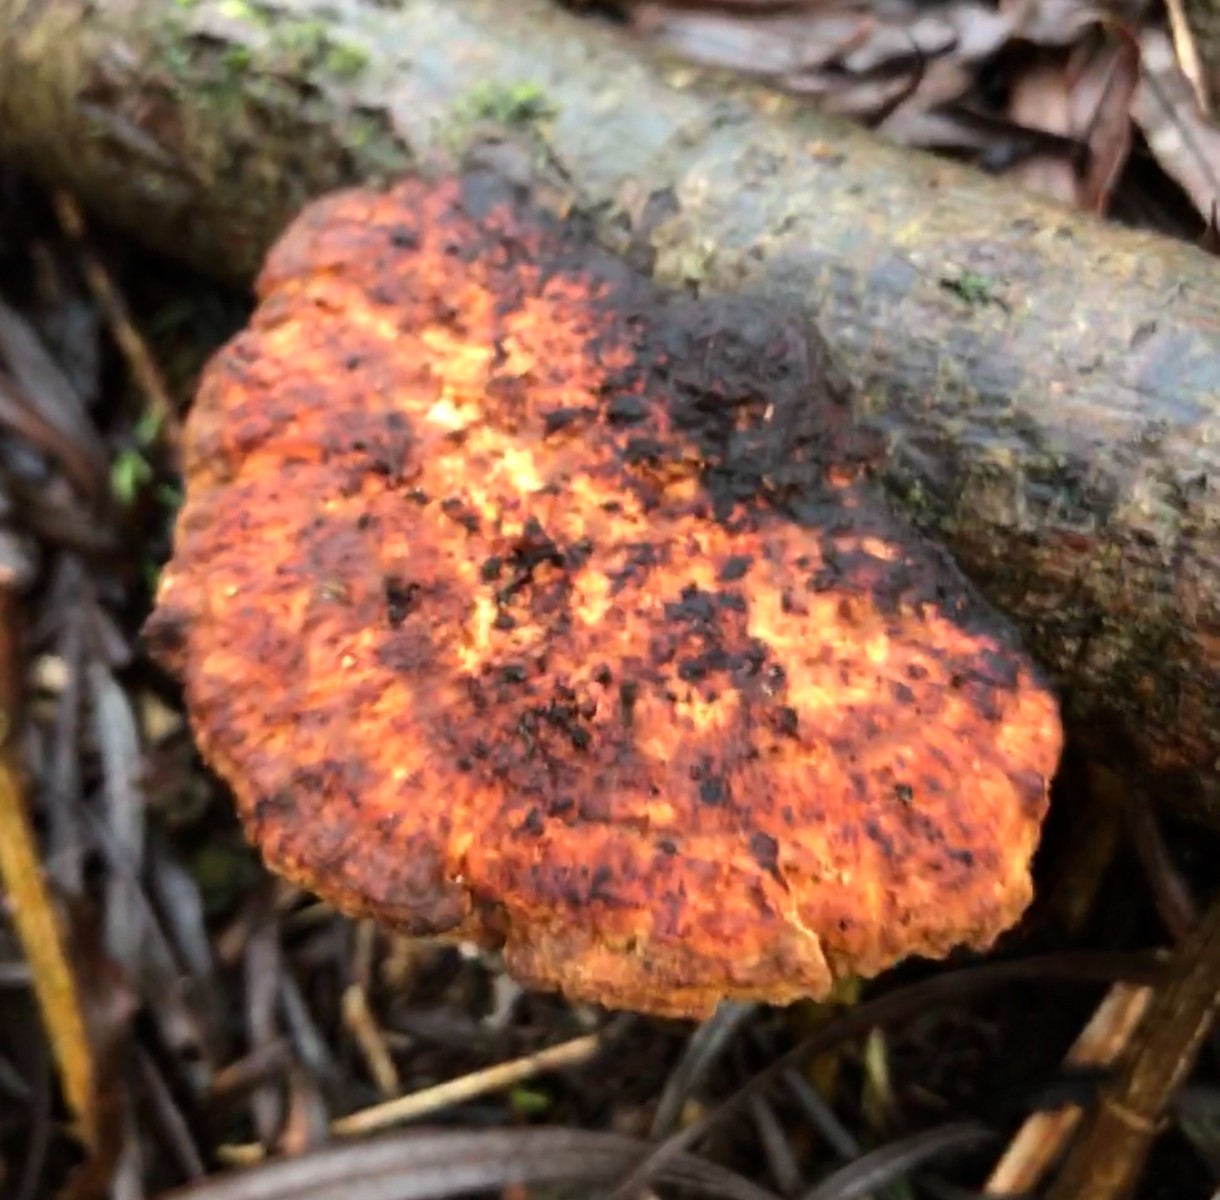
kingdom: Fungi
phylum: Basidiomycota
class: Agaricomycetes
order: Polyporales
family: Polyporaceae
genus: Daedaleopsis
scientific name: Daedaleopsis confragosa
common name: rødmende læderporesvamp
